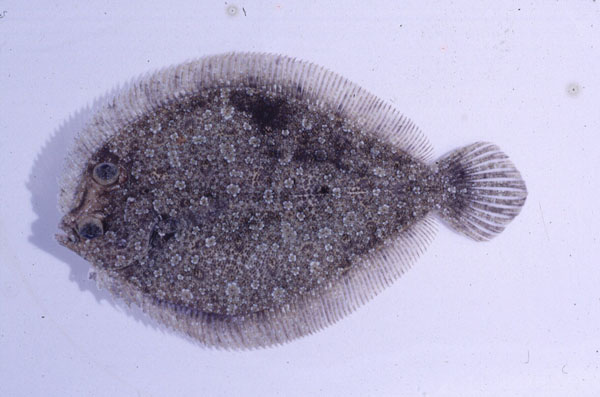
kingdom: Animalia
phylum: Chordata
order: Pleuronectiformes
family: Bothidae
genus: Bothus
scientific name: Bothus podas
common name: Wide-eyed flounder
